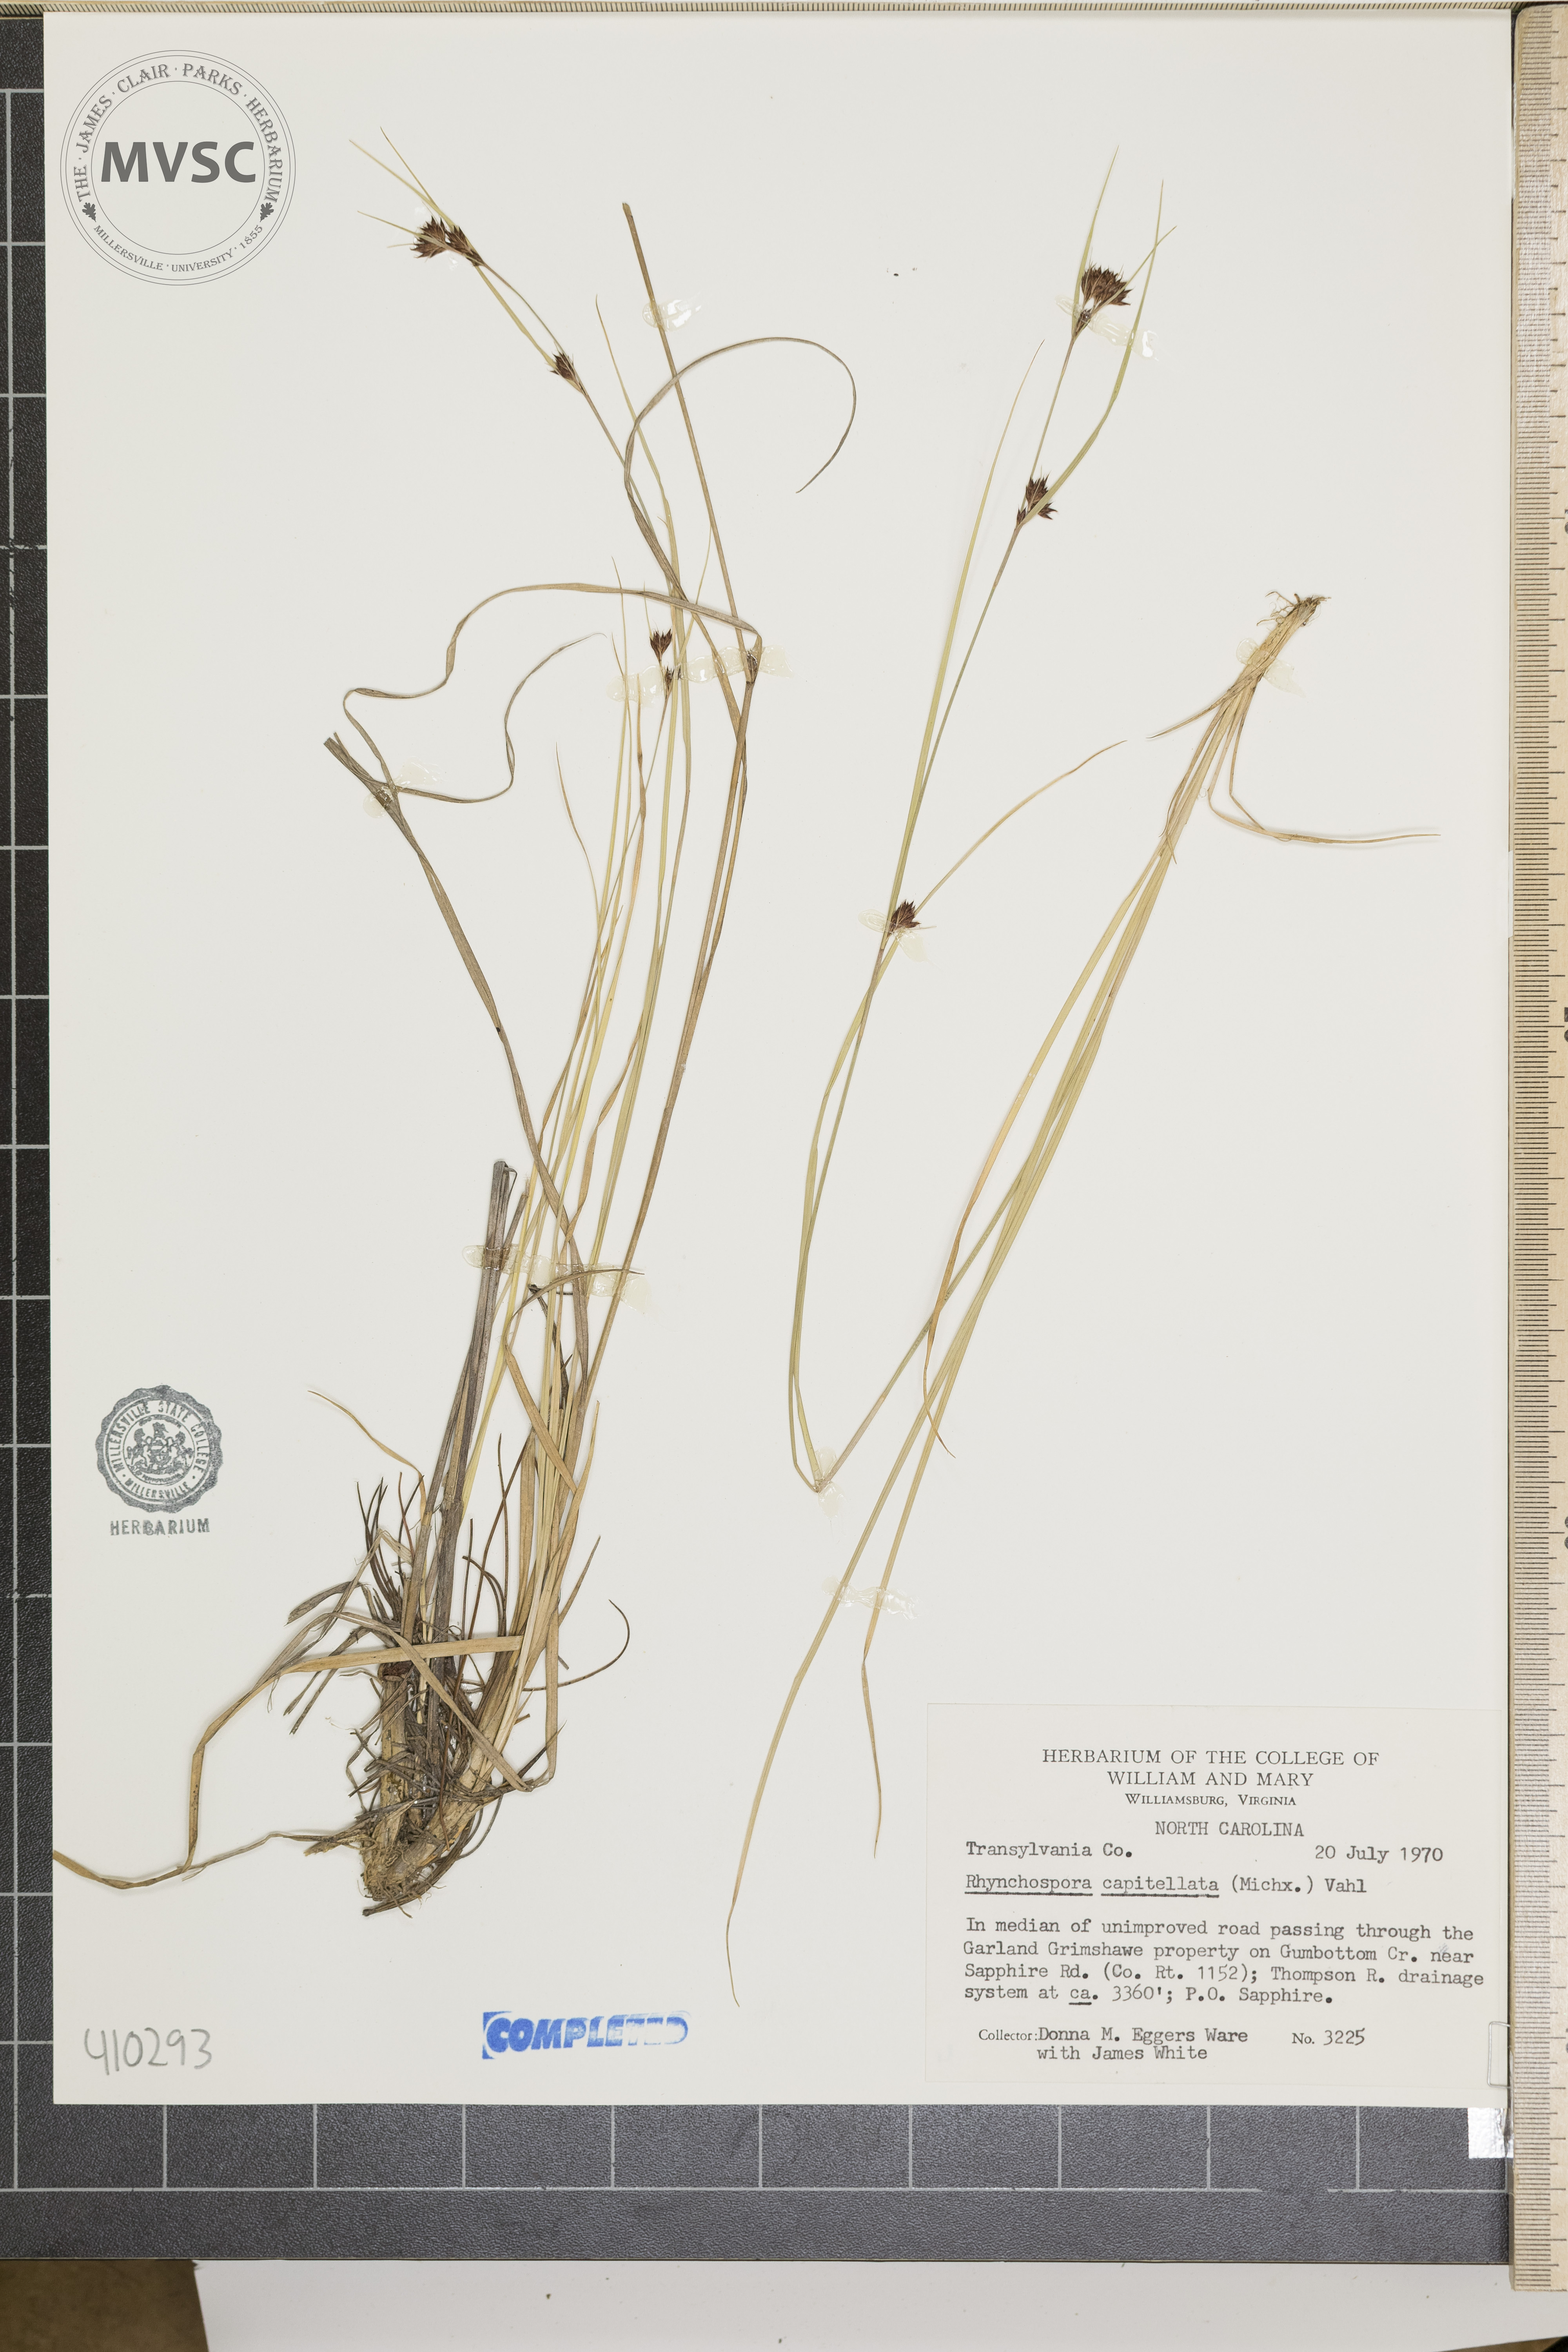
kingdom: Plantae
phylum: Tracheophyta
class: Liliopsida
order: Poales
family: Cyperaceae
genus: Rhynchospora
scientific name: Rhynchospora capitellata
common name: Brownish beaksedge
